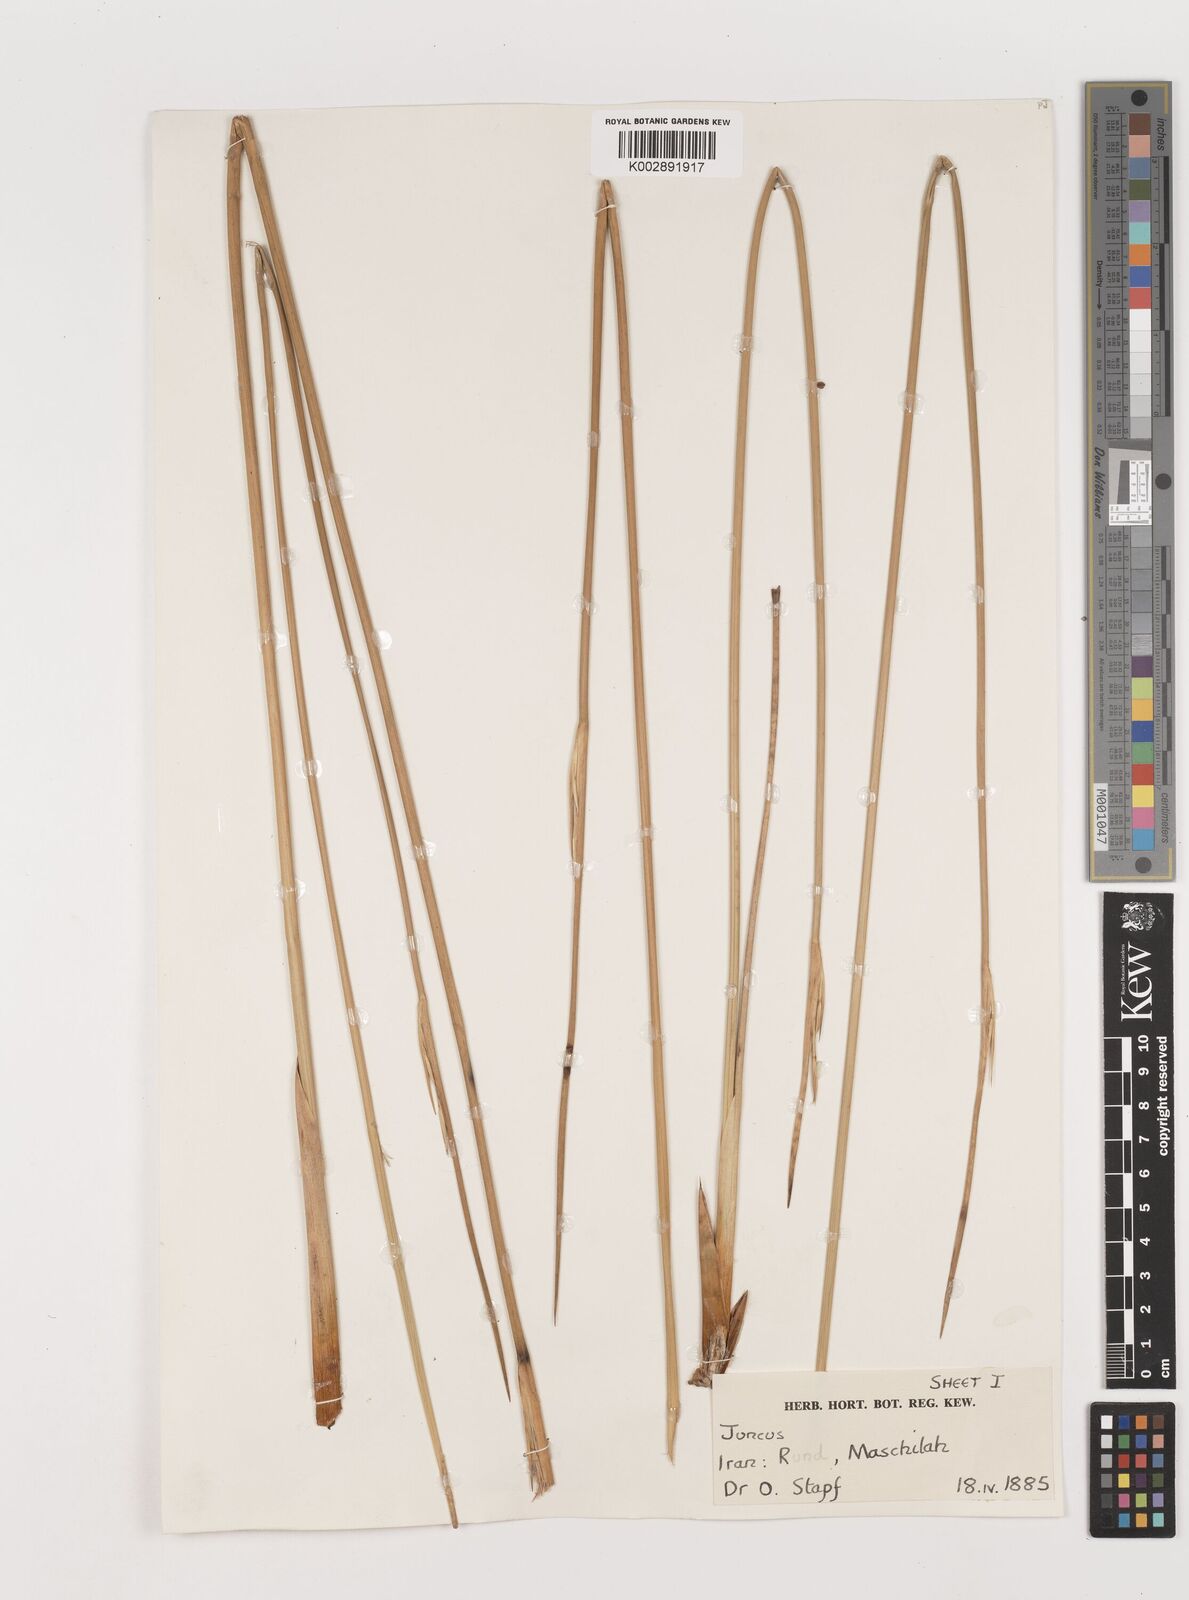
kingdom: Plantae
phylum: Tracheophyta
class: Liliopsida
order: Poales
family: Juncaceae
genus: Juncus
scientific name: Juncus
